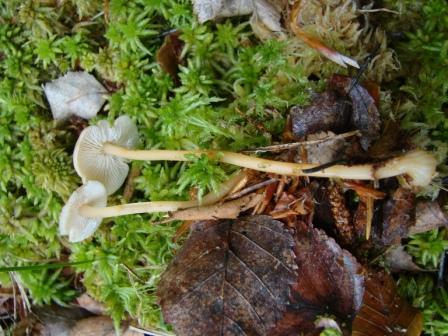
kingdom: Fungi
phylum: Basidiomycota
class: Agaricomycetes
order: Agaricales
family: Omphalotaceae
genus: Gymnopus
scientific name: Gymnopus aquosus
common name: bleg fladhat
